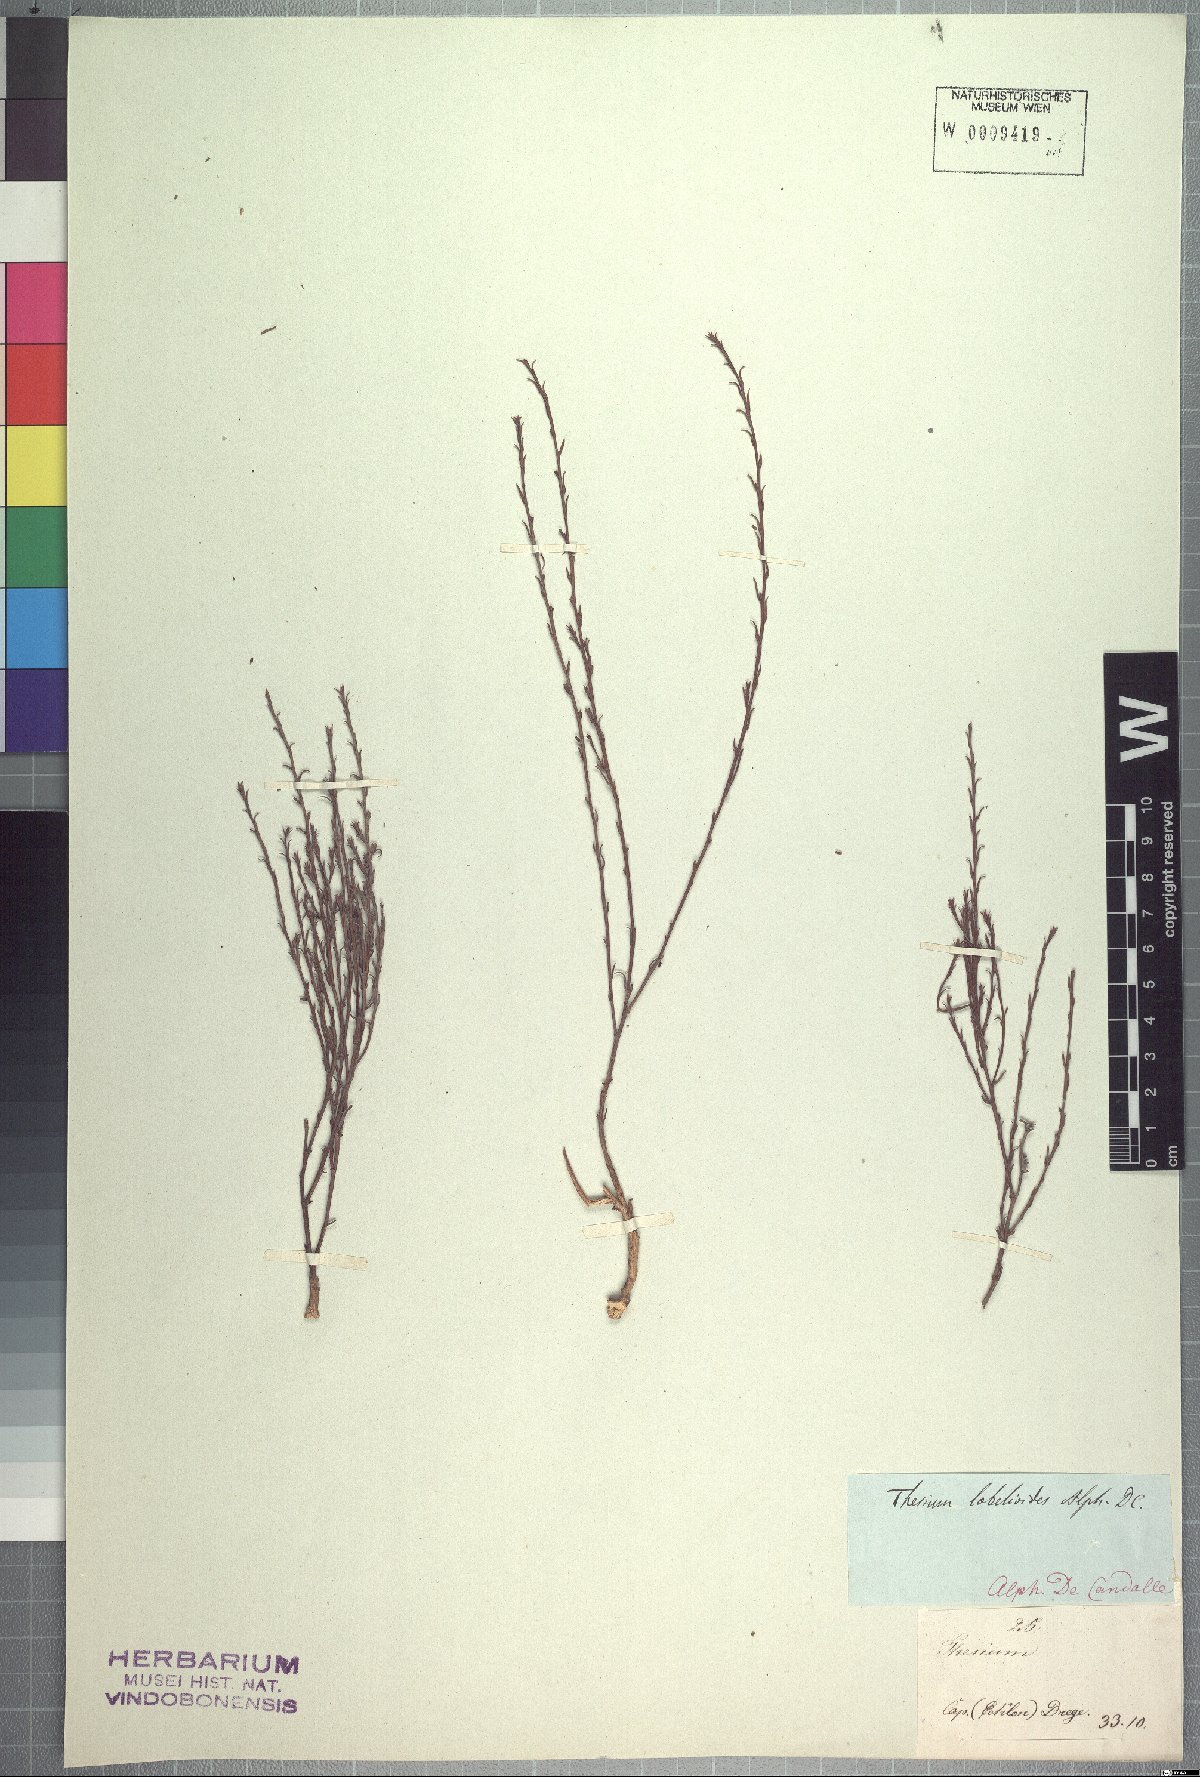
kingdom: Plantae
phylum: Tracheophyta
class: Magnoliopsida
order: Santalales
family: Thesiaceae
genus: Thesium
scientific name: Thesium lobelioides
